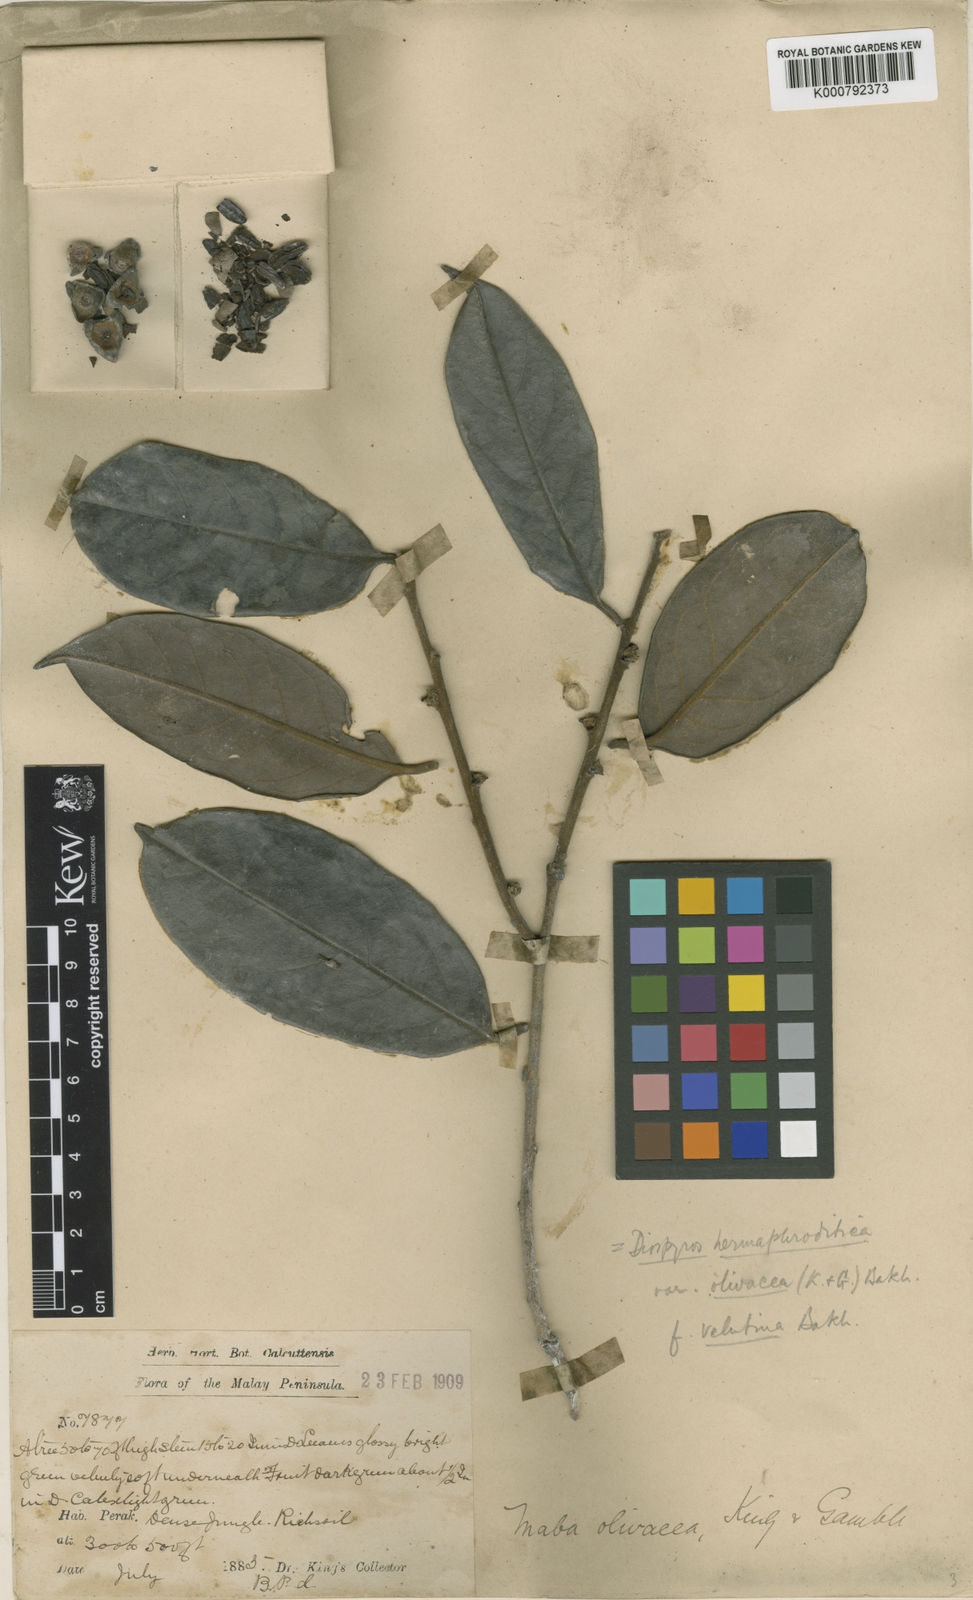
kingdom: Plantae
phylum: Tracheophyta
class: Magnoliopsida
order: Ericales
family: Ebenaceae
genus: Diospyros
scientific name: Diospyros venosa
